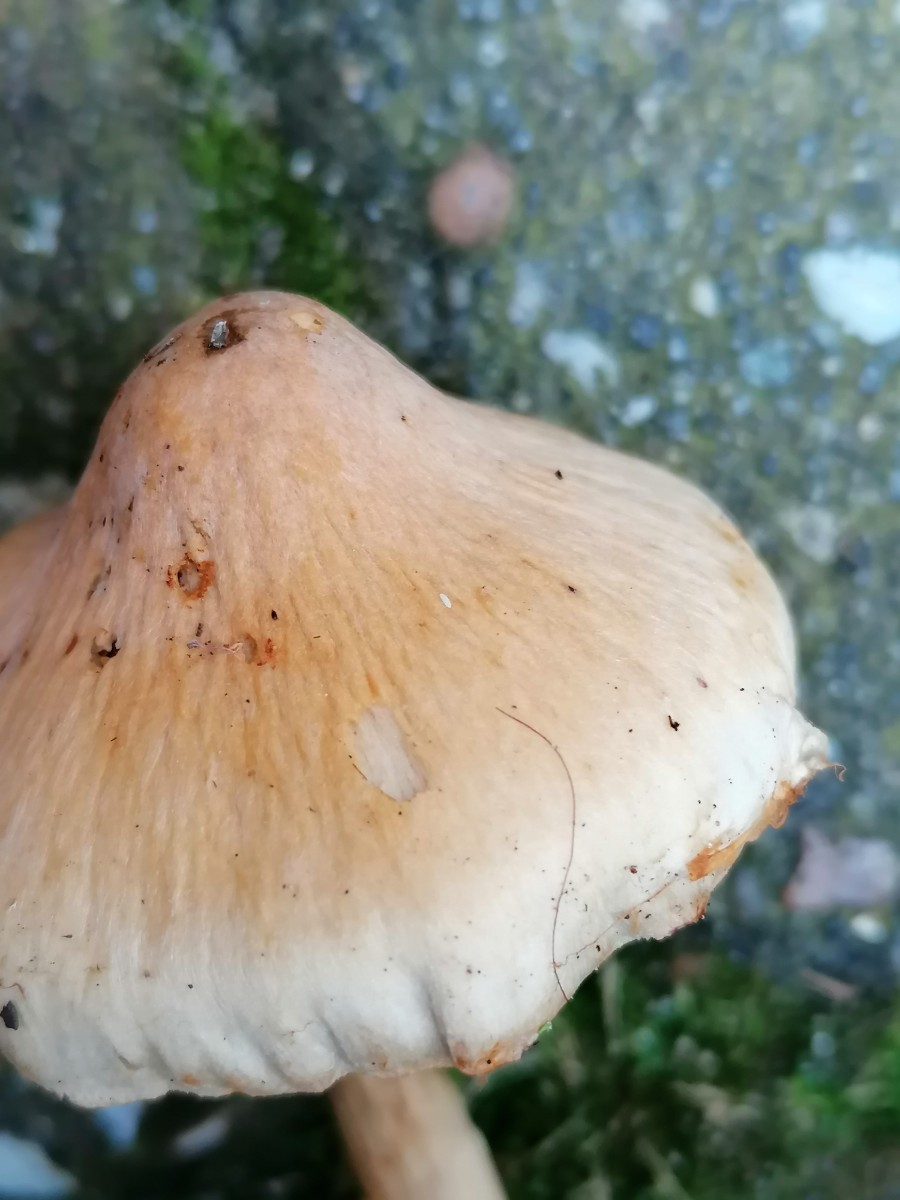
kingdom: Fungi
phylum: Basidiomycota
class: Agaricomycetes
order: Agaricales
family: Cortinariaceae
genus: Cortinarius
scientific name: Cortinarius hinnuleus
